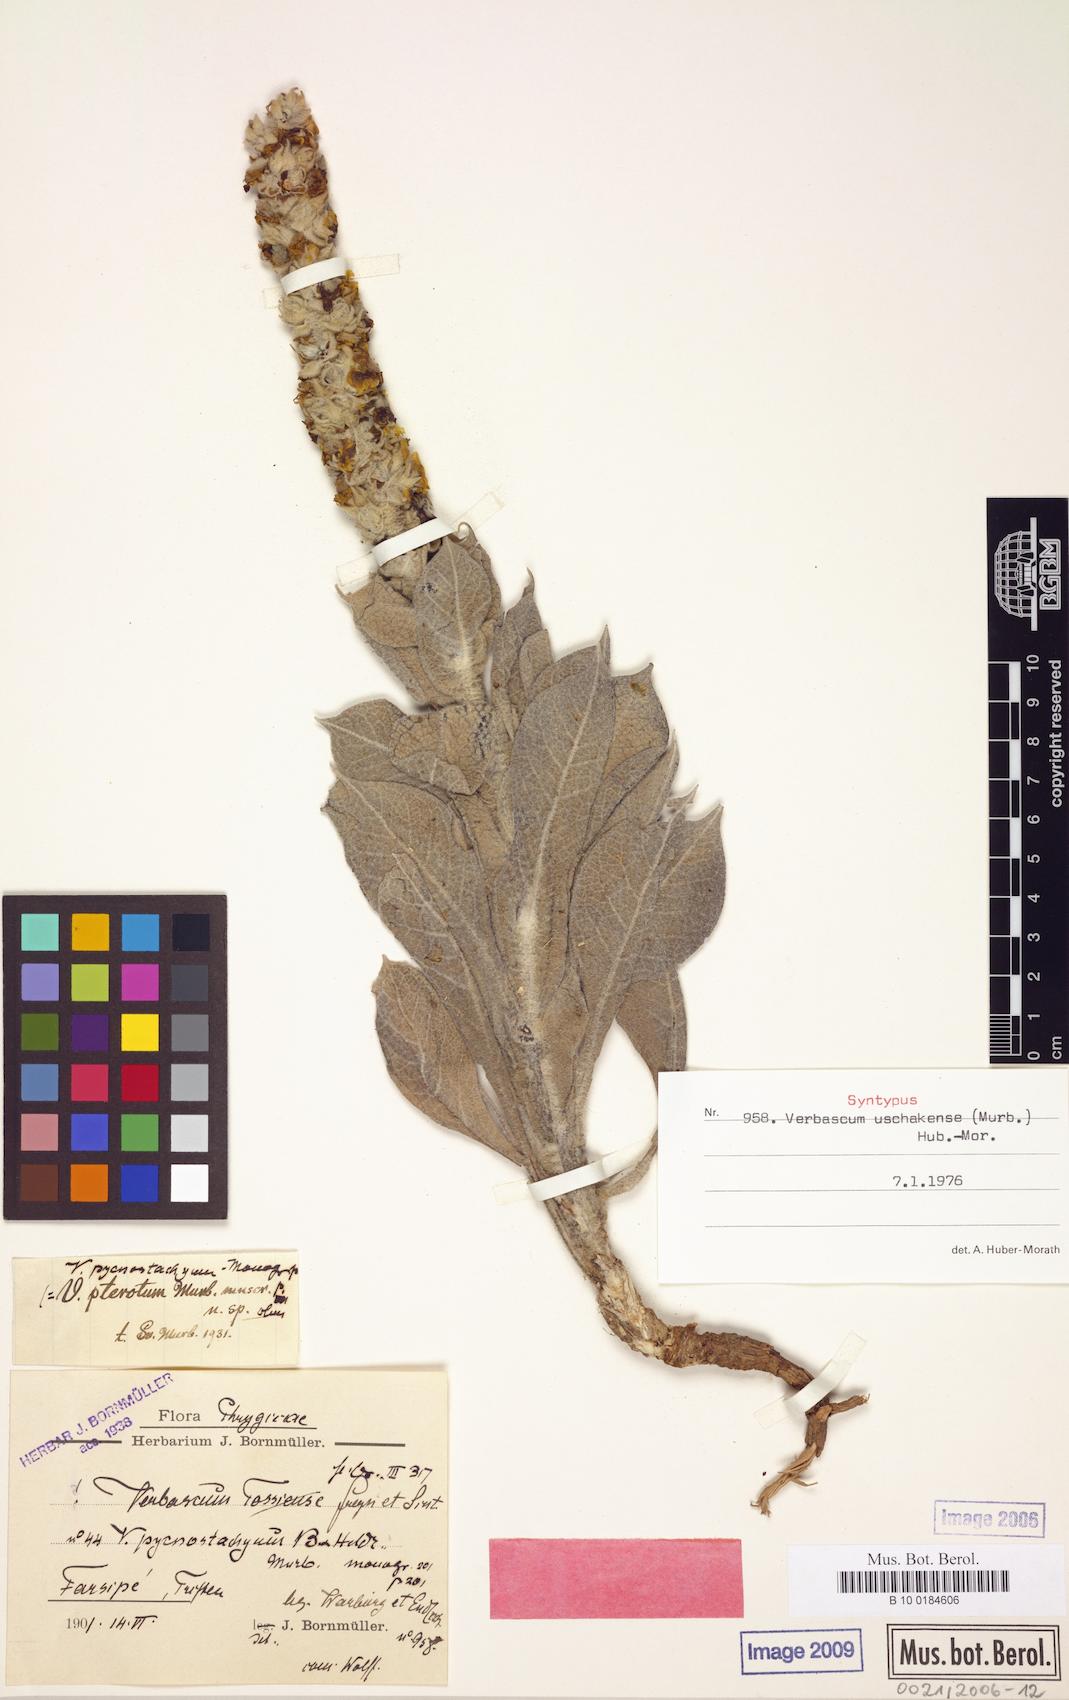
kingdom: Plantae
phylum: Tracheophyta
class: Magnoliopsida
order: Lamiales
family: Scrophulariaceae
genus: Verbascum
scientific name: Verbascum uschakense
